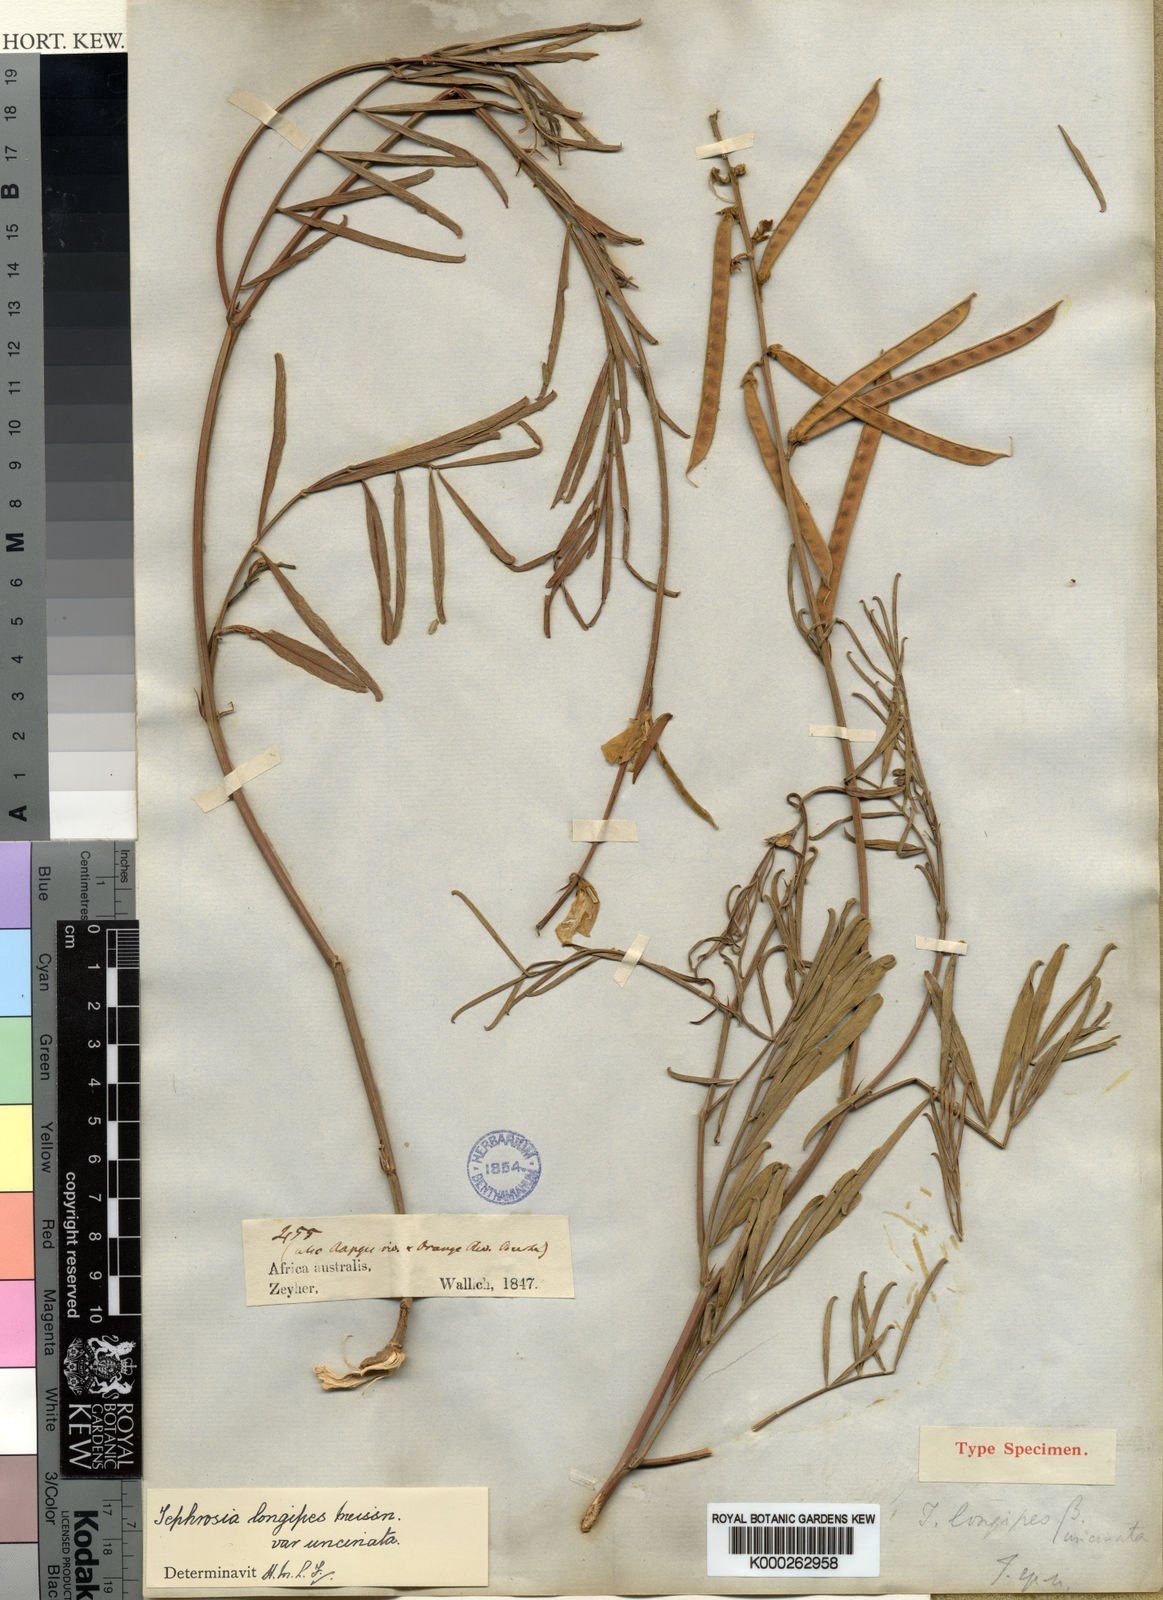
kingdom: Plantae
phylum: Tracheophyta
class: Magnoliopsida
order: Fabales
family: Fabaceae
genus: Tephrosia
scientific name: Tephrosia longipes
